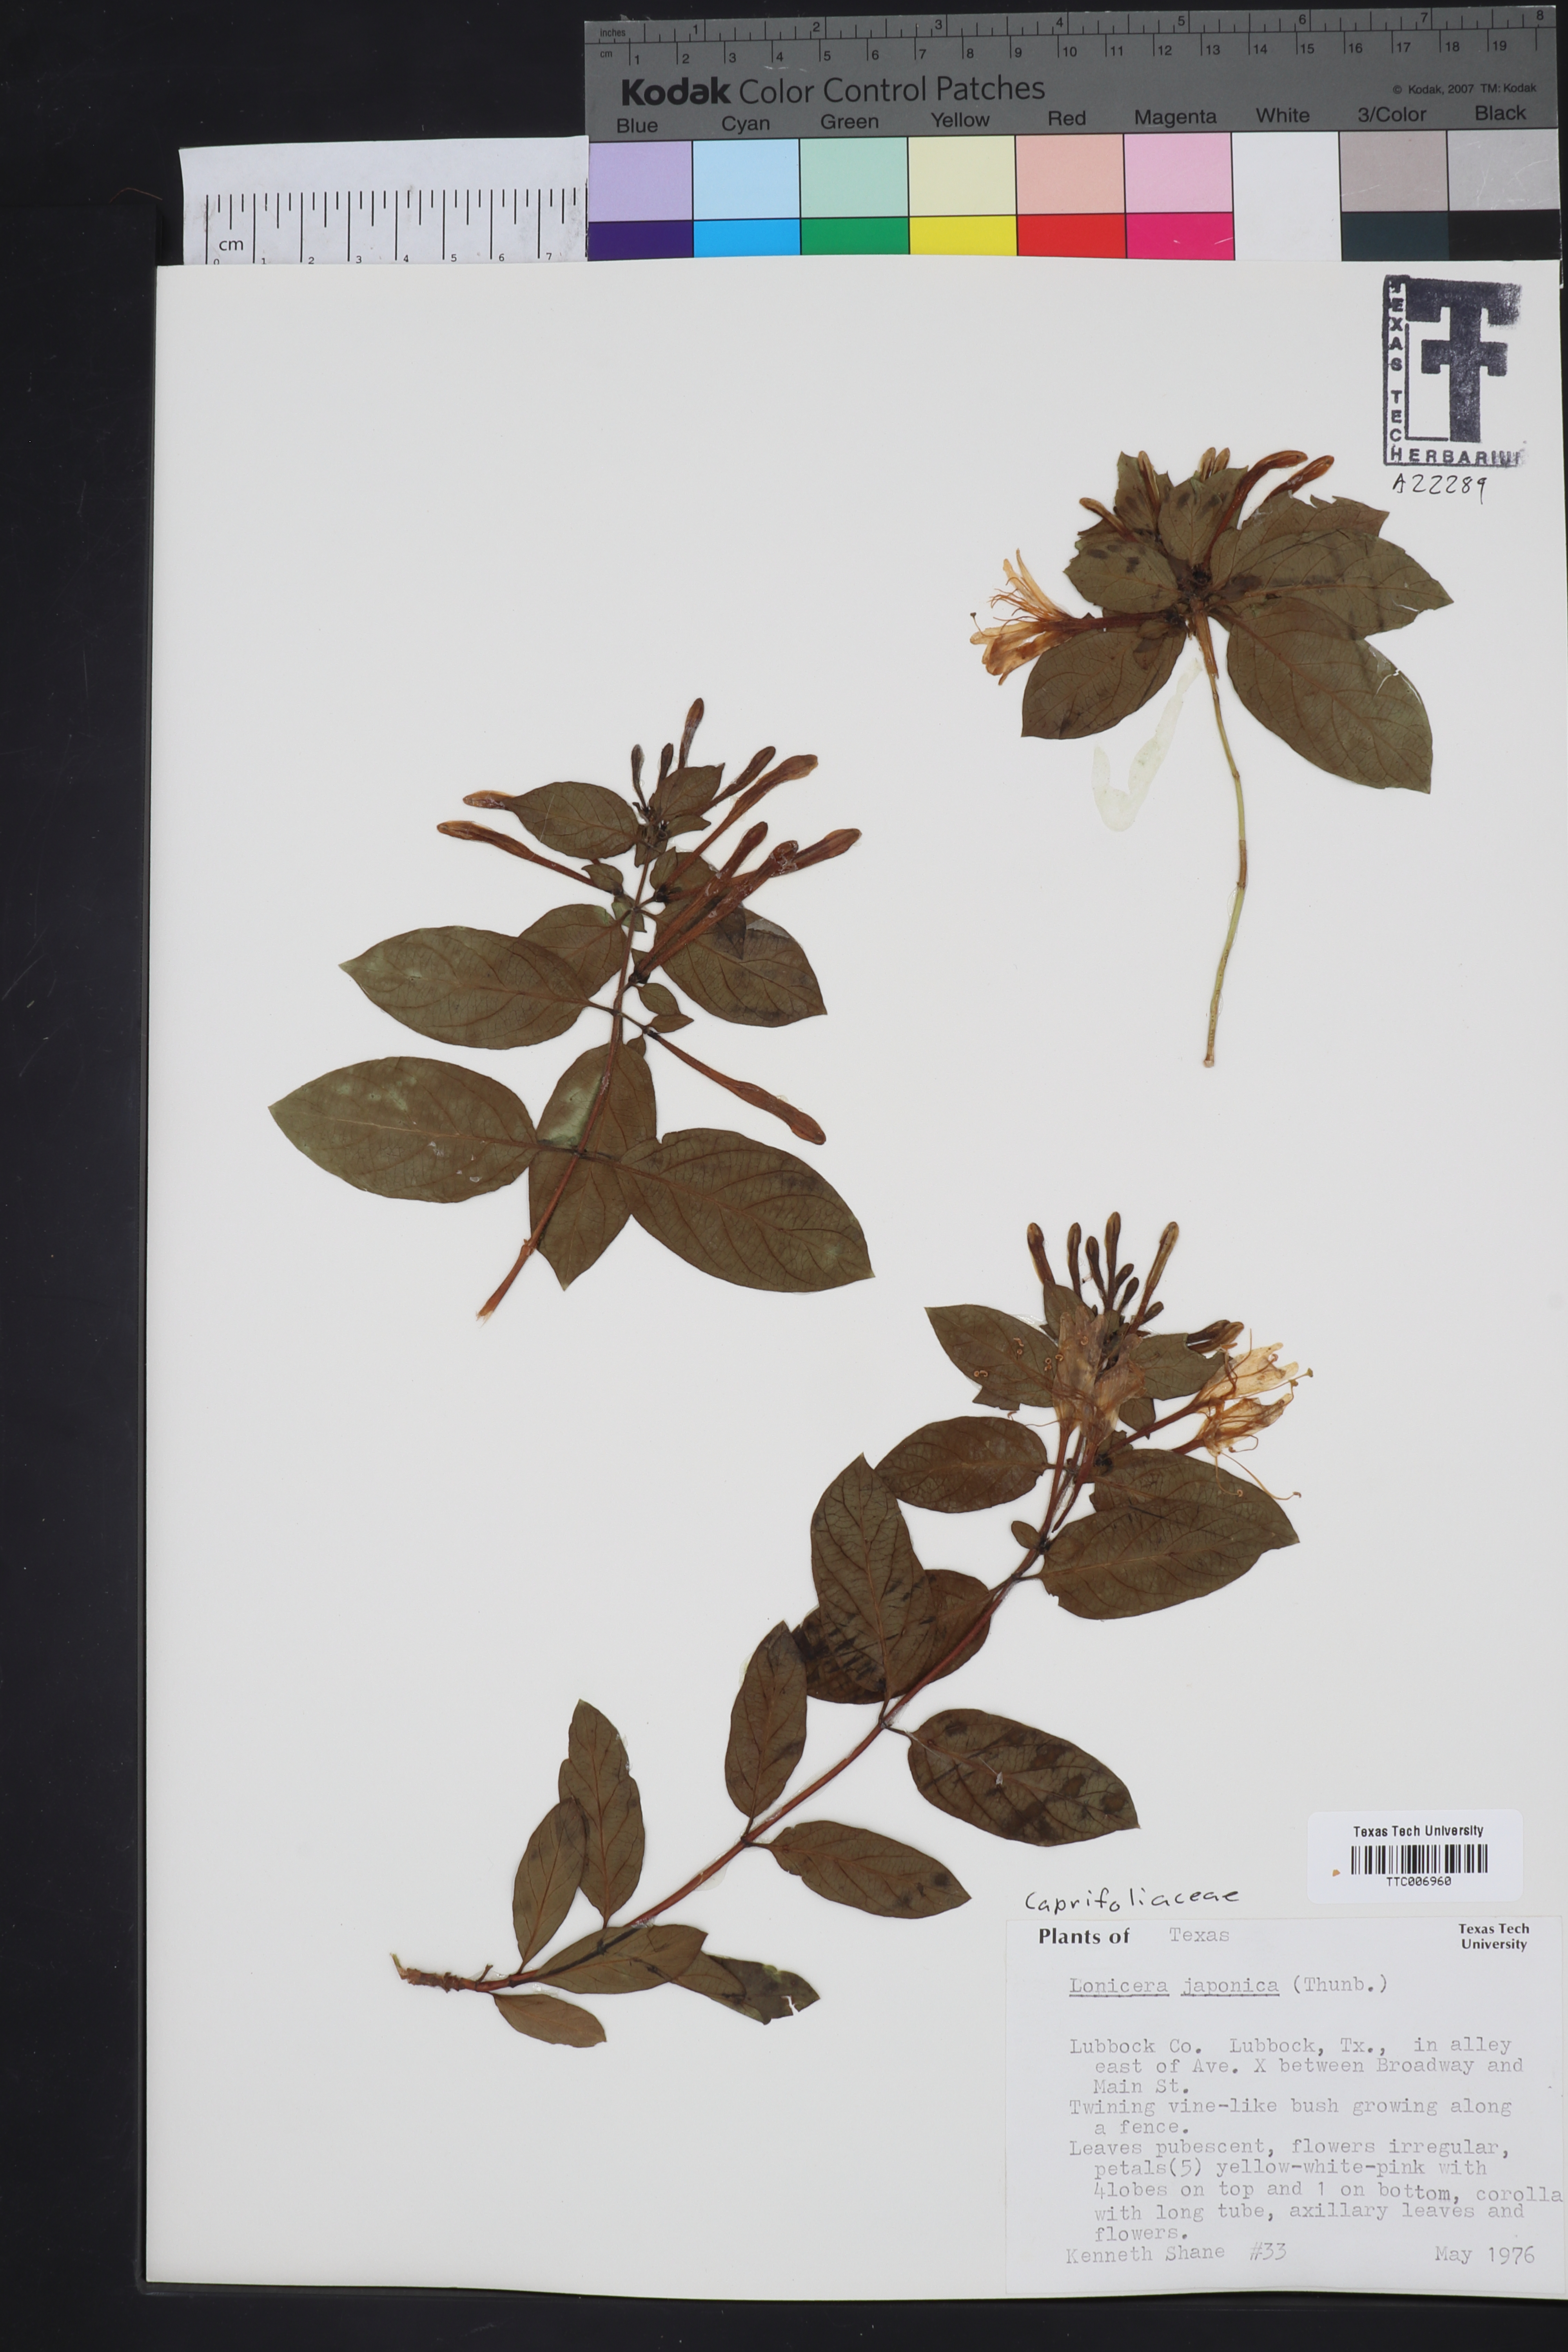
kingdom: Plantae
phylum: Tracheophyta
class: Magnoliopsida
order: Dipsacales
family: Caprifoliaceae
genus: Lonicera
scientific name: Lonicera japonica
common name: Japanese honeysuckle
